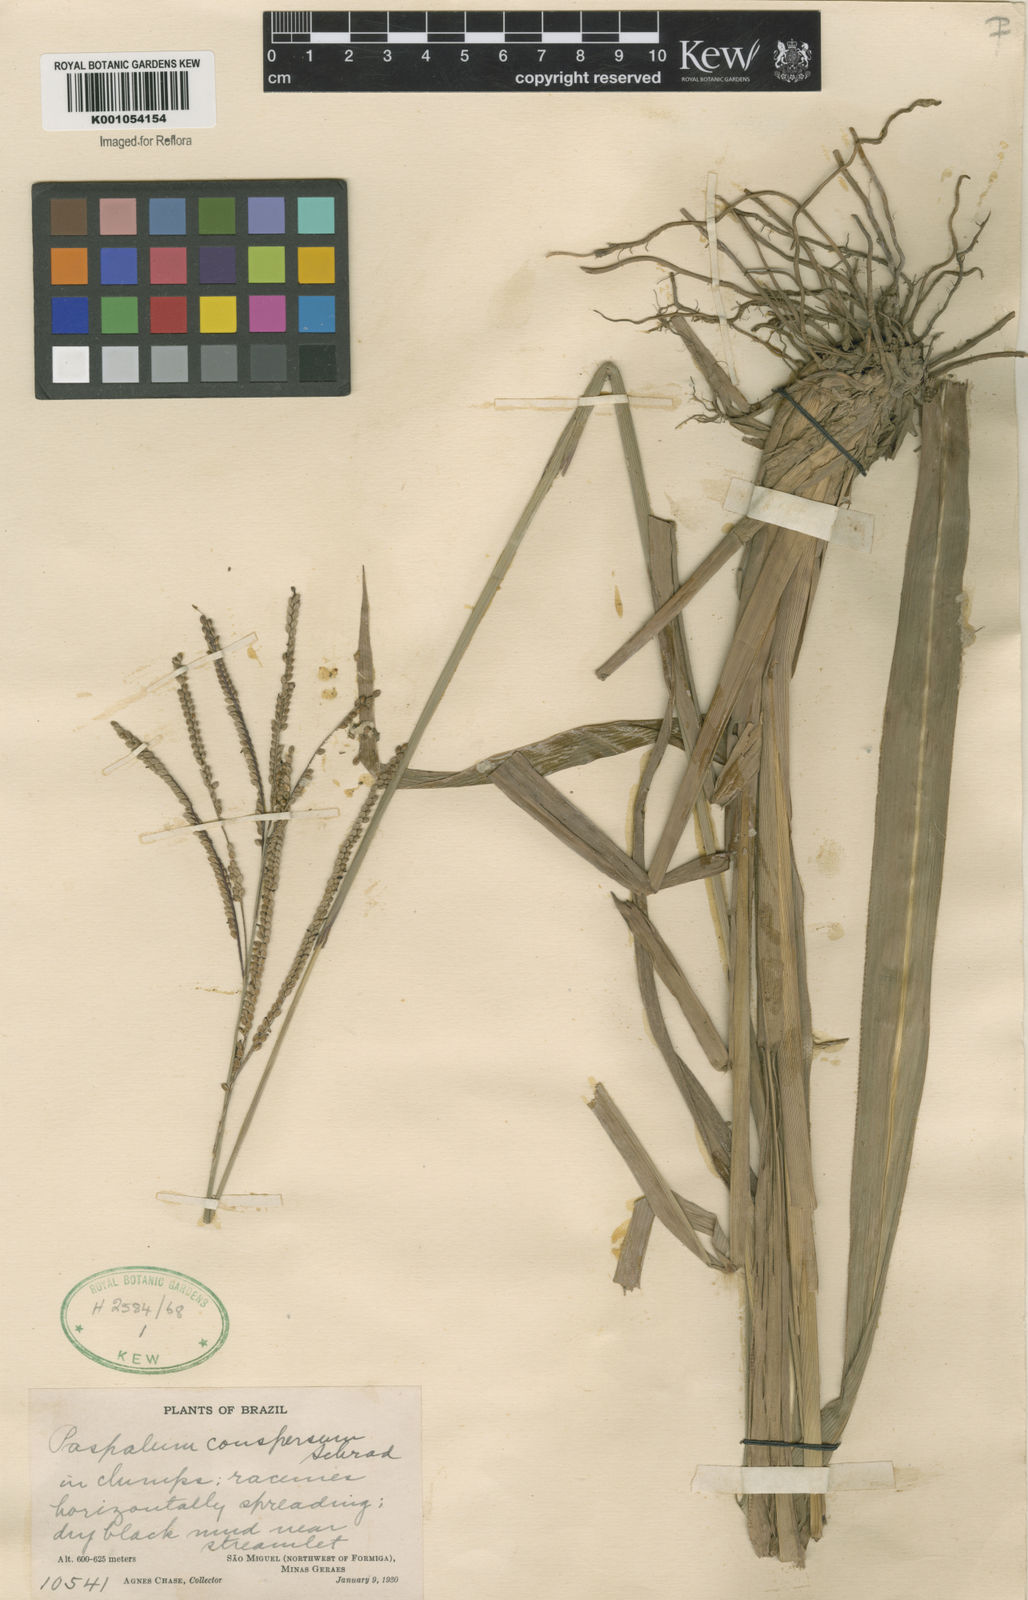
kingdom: Plantae
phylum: Tracheophyta
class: Liliopsida
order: Poales
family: Poaceae
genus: Paspalum
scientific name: Paspalum conspersum
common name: Scattered paspalum
